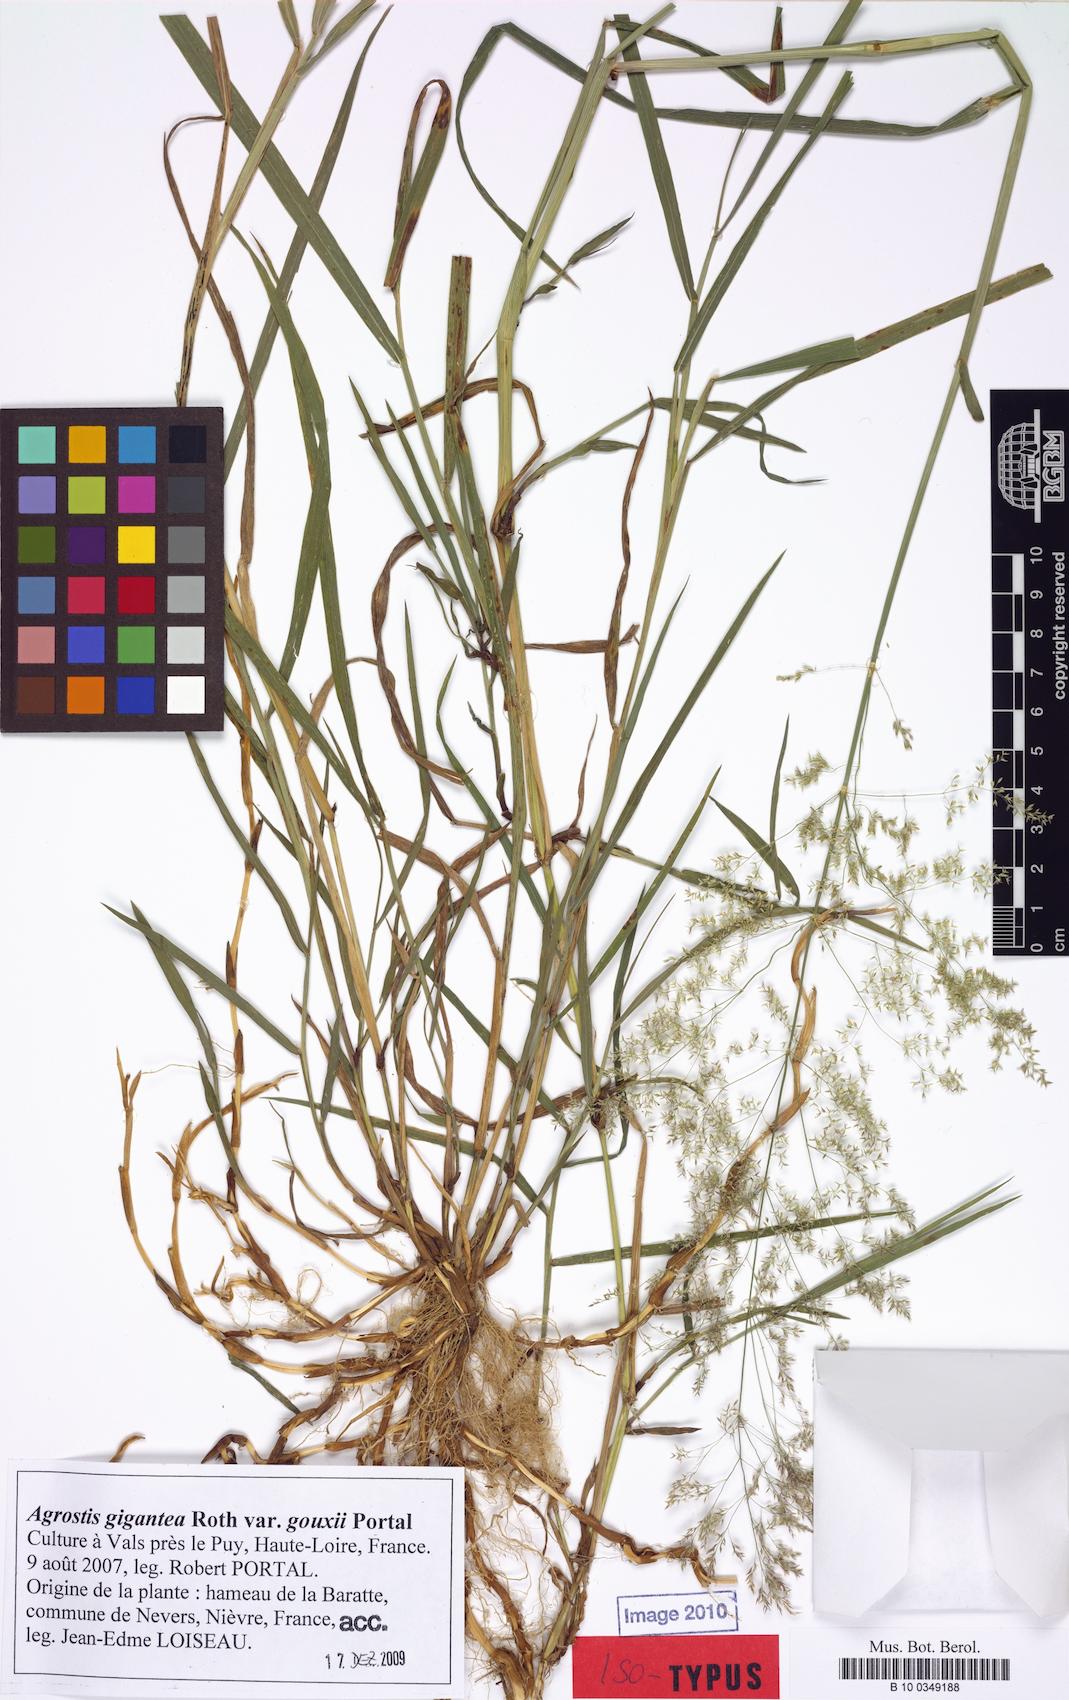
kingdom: Plantae
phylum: Tracheophyta
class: Liliopsida
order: Poales
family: Poaceae
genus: Agrostis
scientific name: Agrostis gigantea
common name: Black bent
